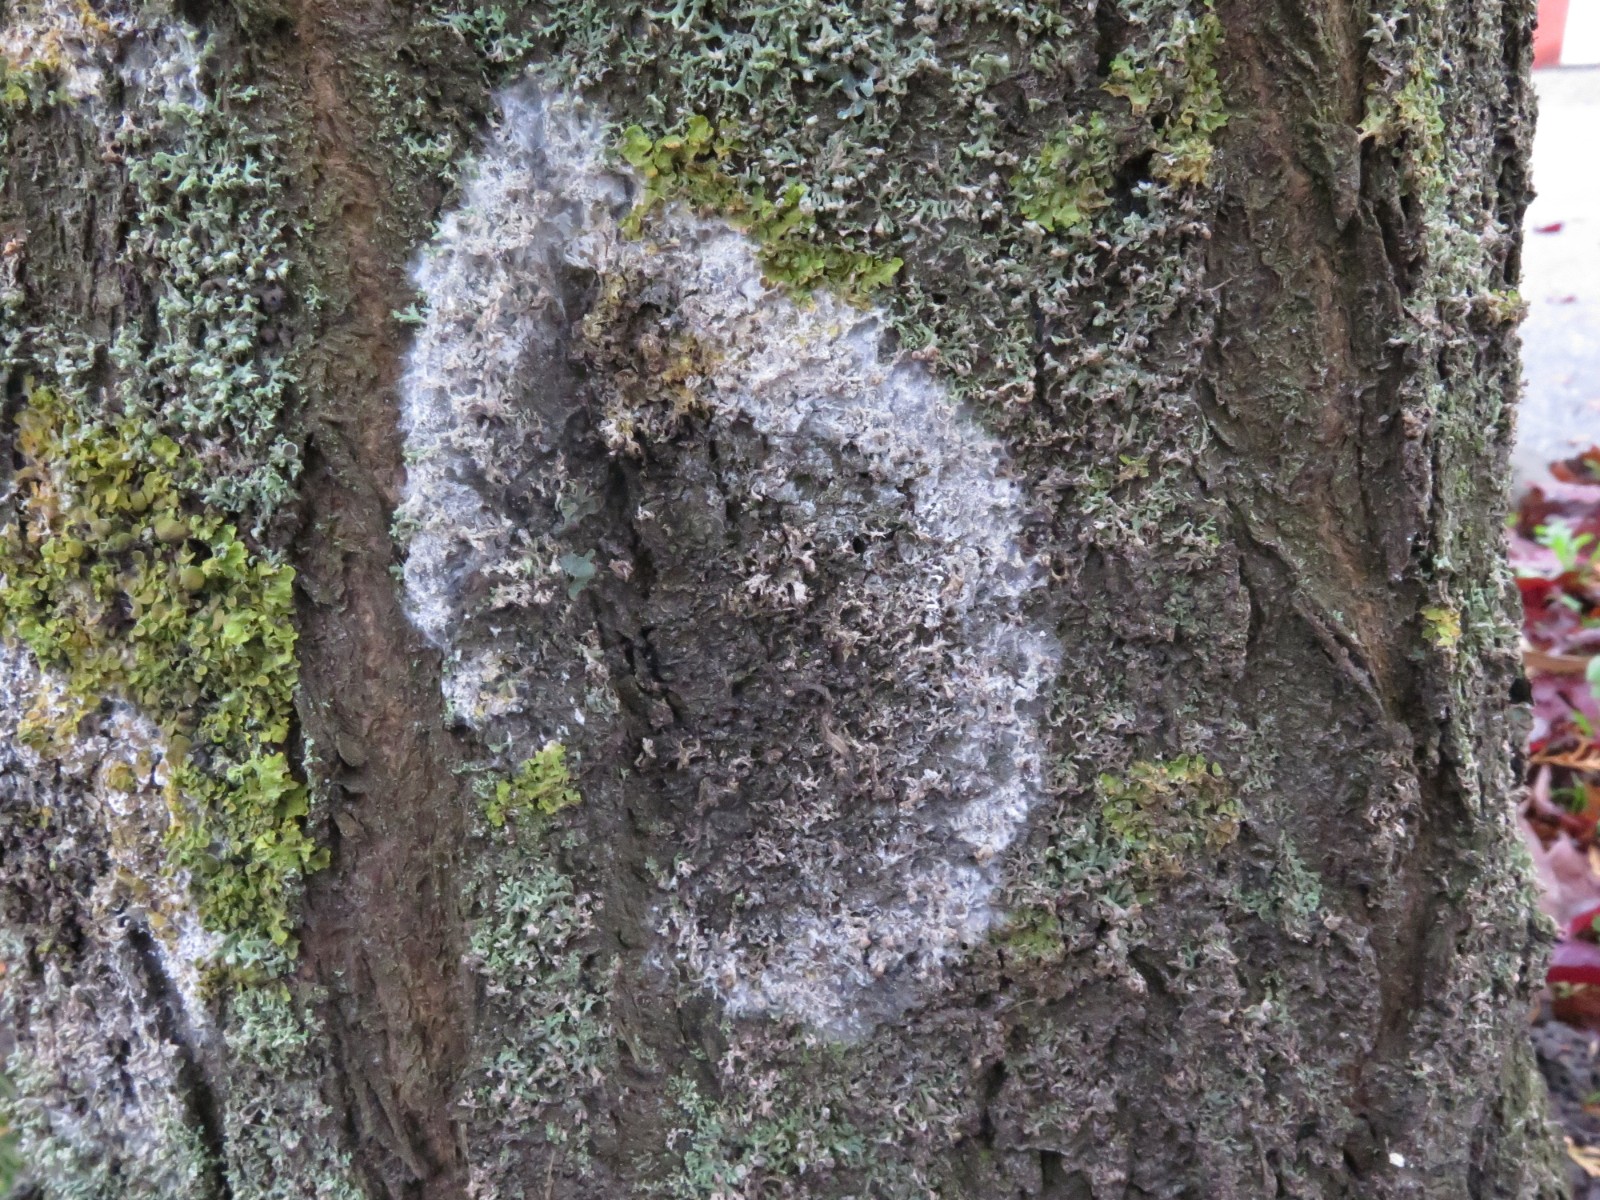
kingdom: Fungi
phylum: Basidiomycota
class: Agaricomycetes
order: Atheliales
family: Atheliaceae
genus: Athelia
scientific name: Athelia arachnoidea
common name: randet barkhinde
